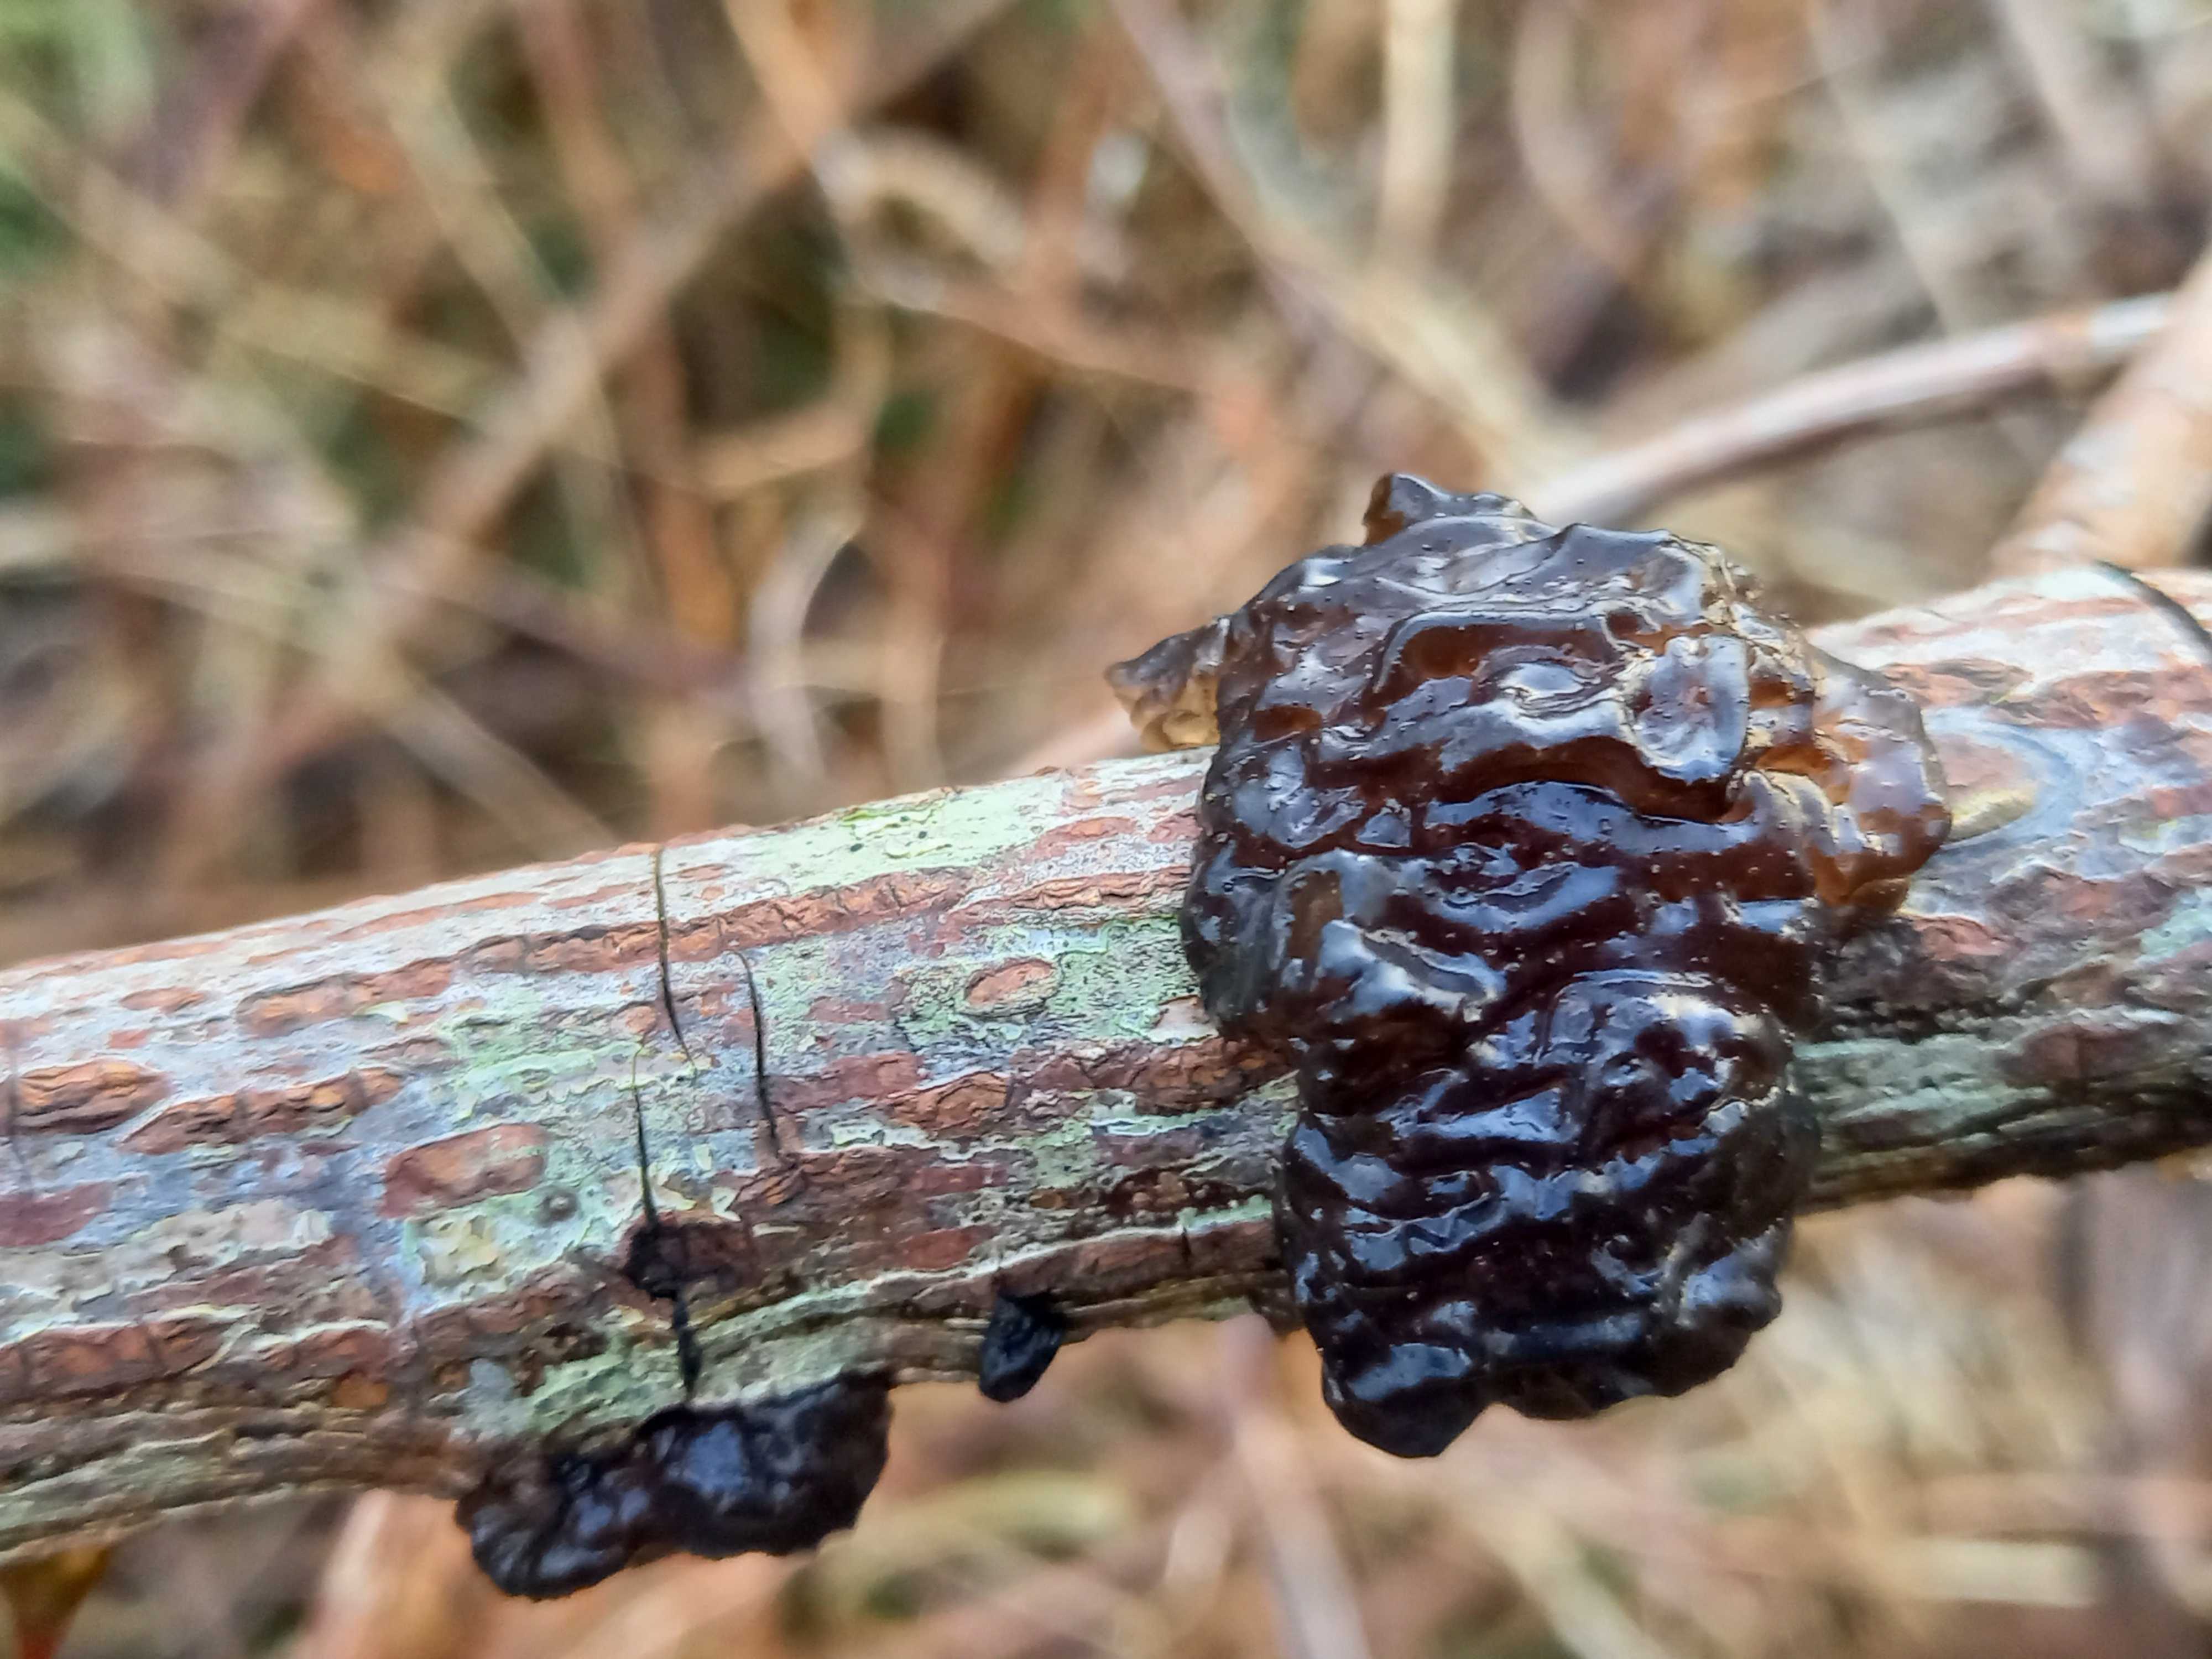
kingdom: Fungi
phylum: Basidiomycota
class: Agaricomycetes
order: Auriculariales
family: Auriculariaceae
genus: Exidia
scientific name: Exidia nigricans
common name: almindelig bævretop
